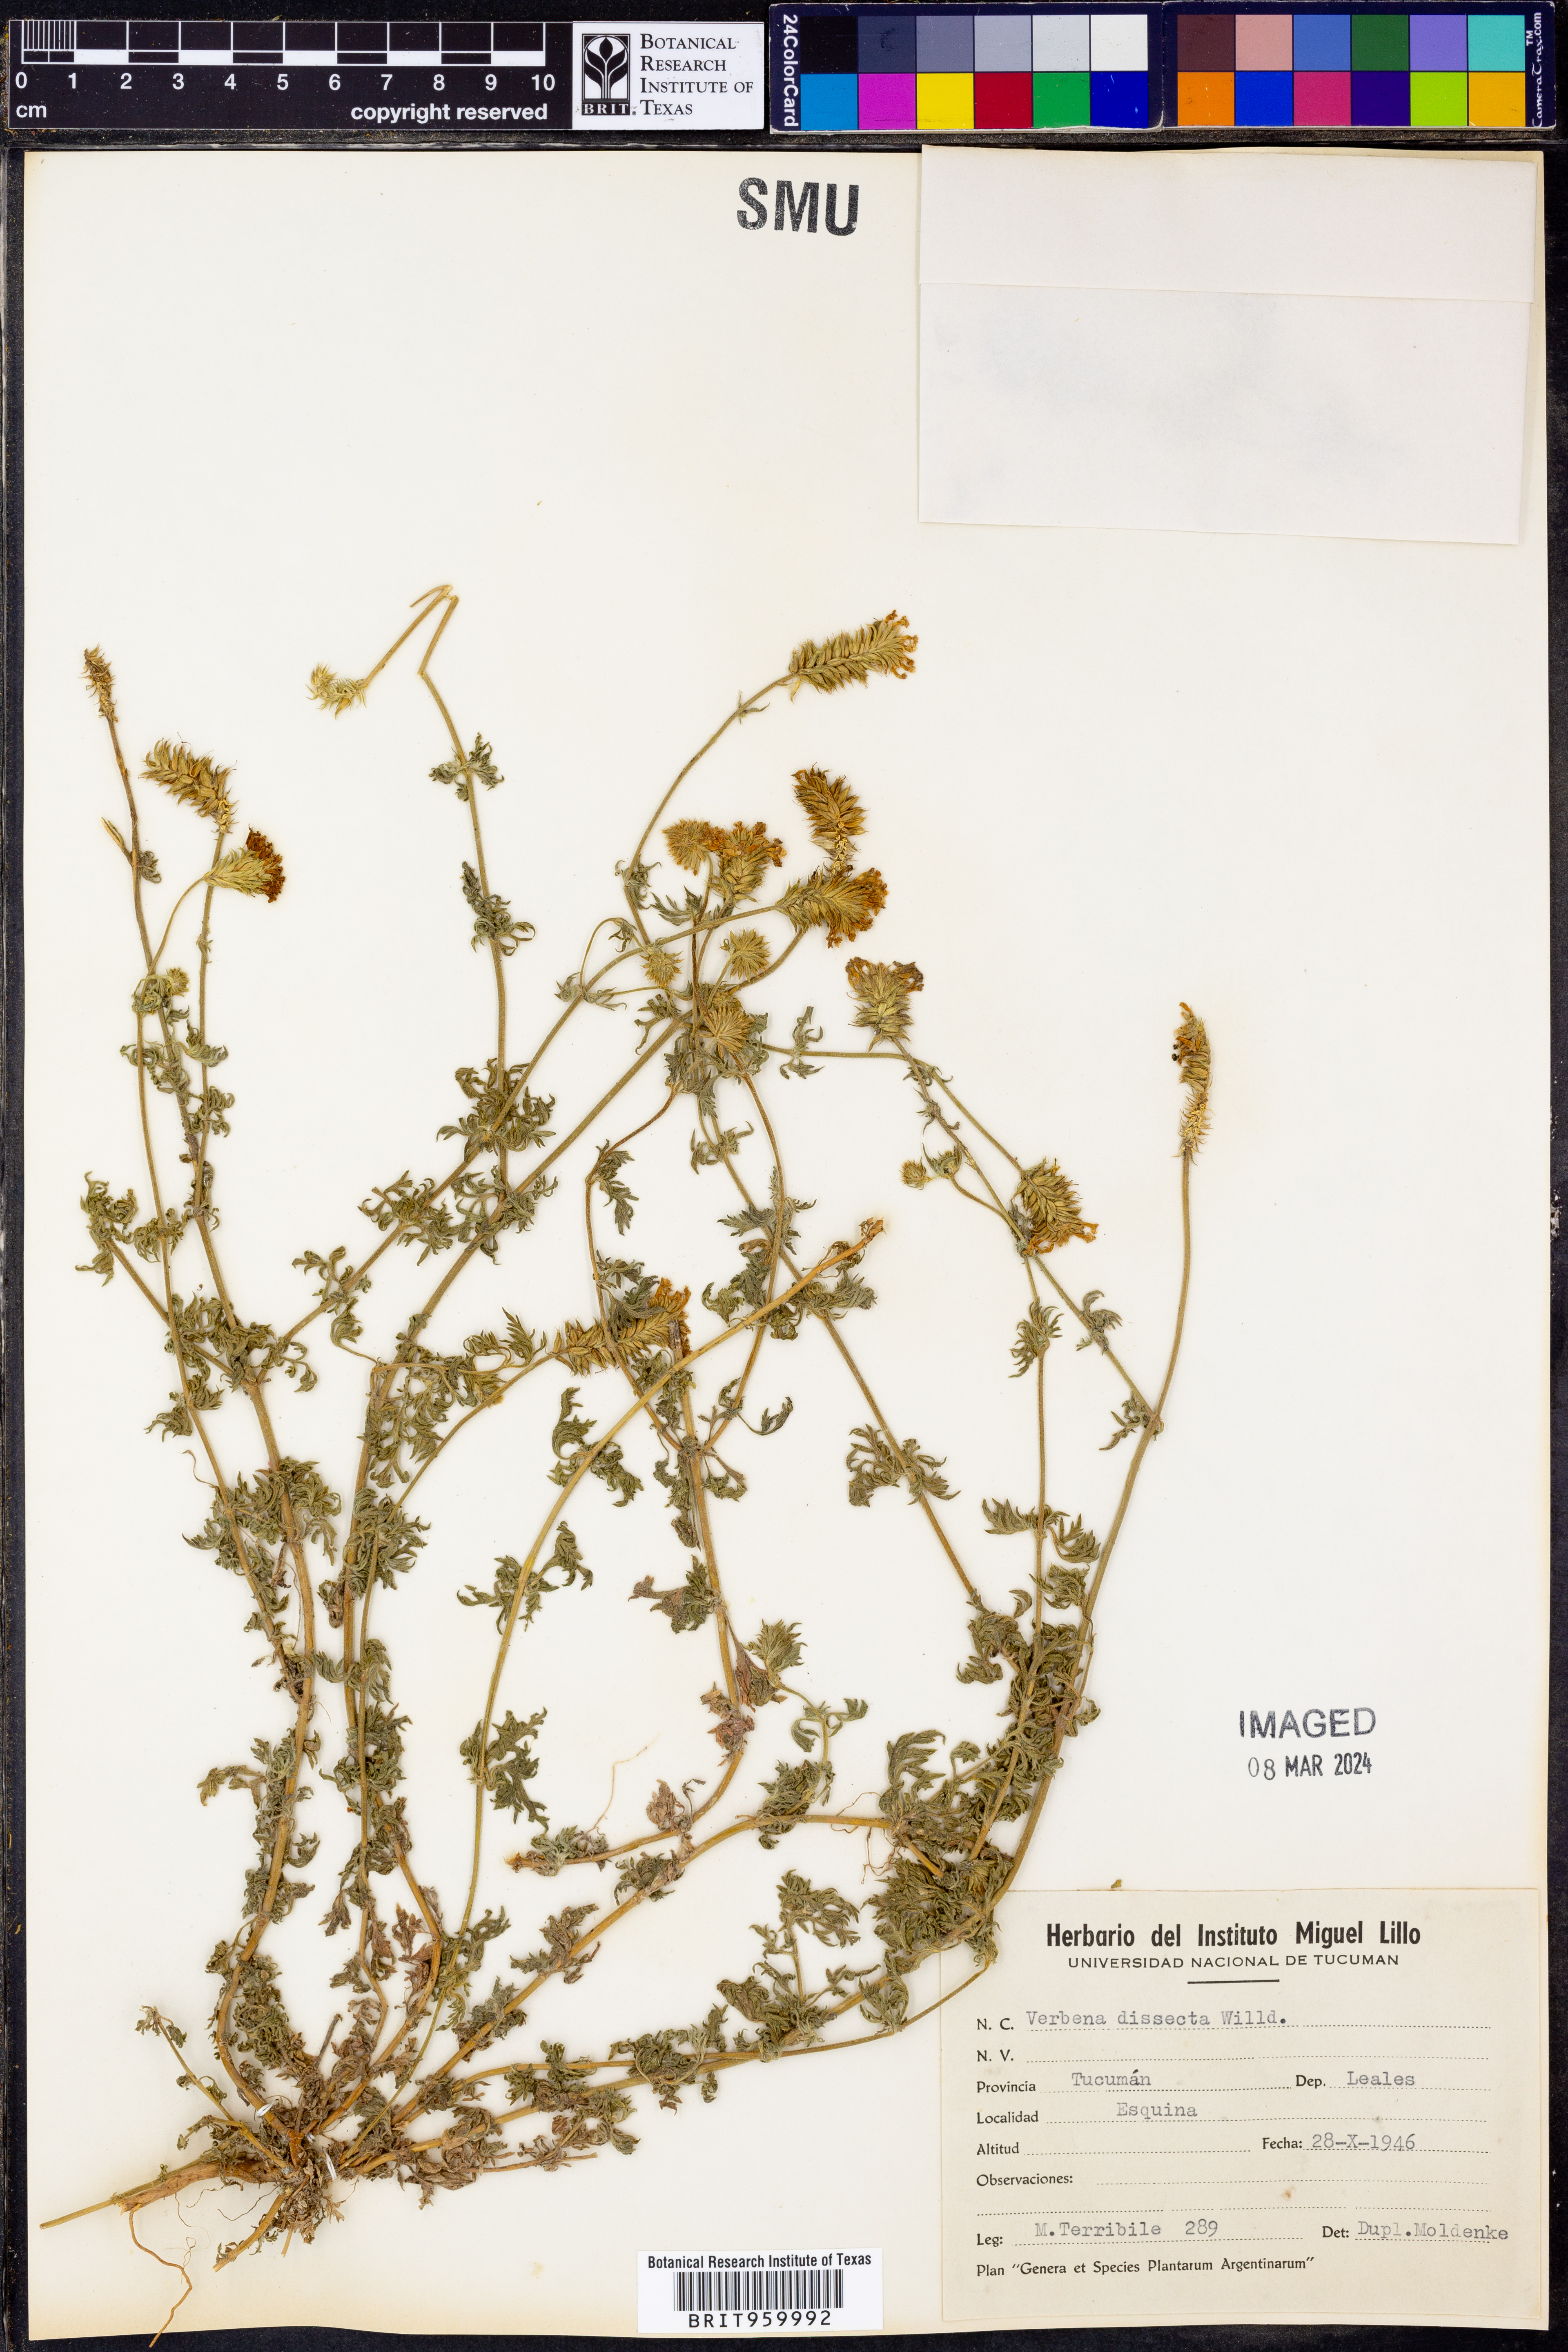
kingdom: Plantae
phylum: Tracheophyta
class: Magnoliopsida
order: Lamiales
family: Verbenaceae
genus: Verbena
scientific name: Verbena
